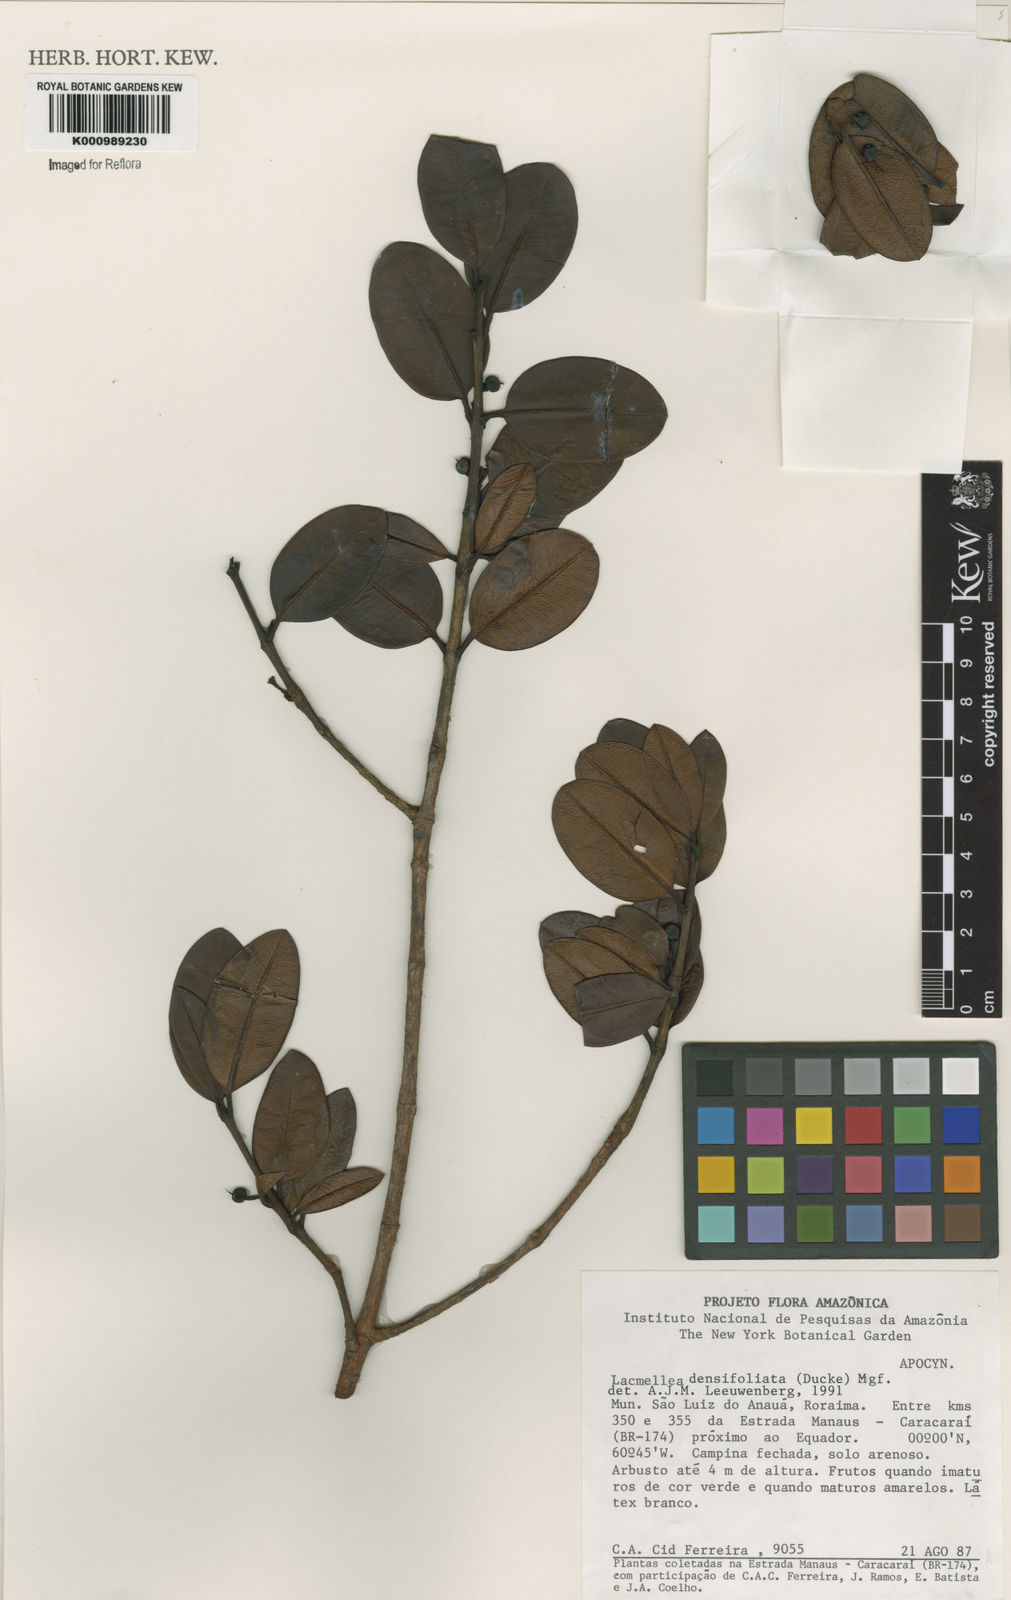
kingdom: Plantae
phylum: Tracheophyta
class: Magnoliopsida
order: Gentianales
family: Apocynaceae
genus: Lacmellea
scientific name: Lacmellea densifoliata
